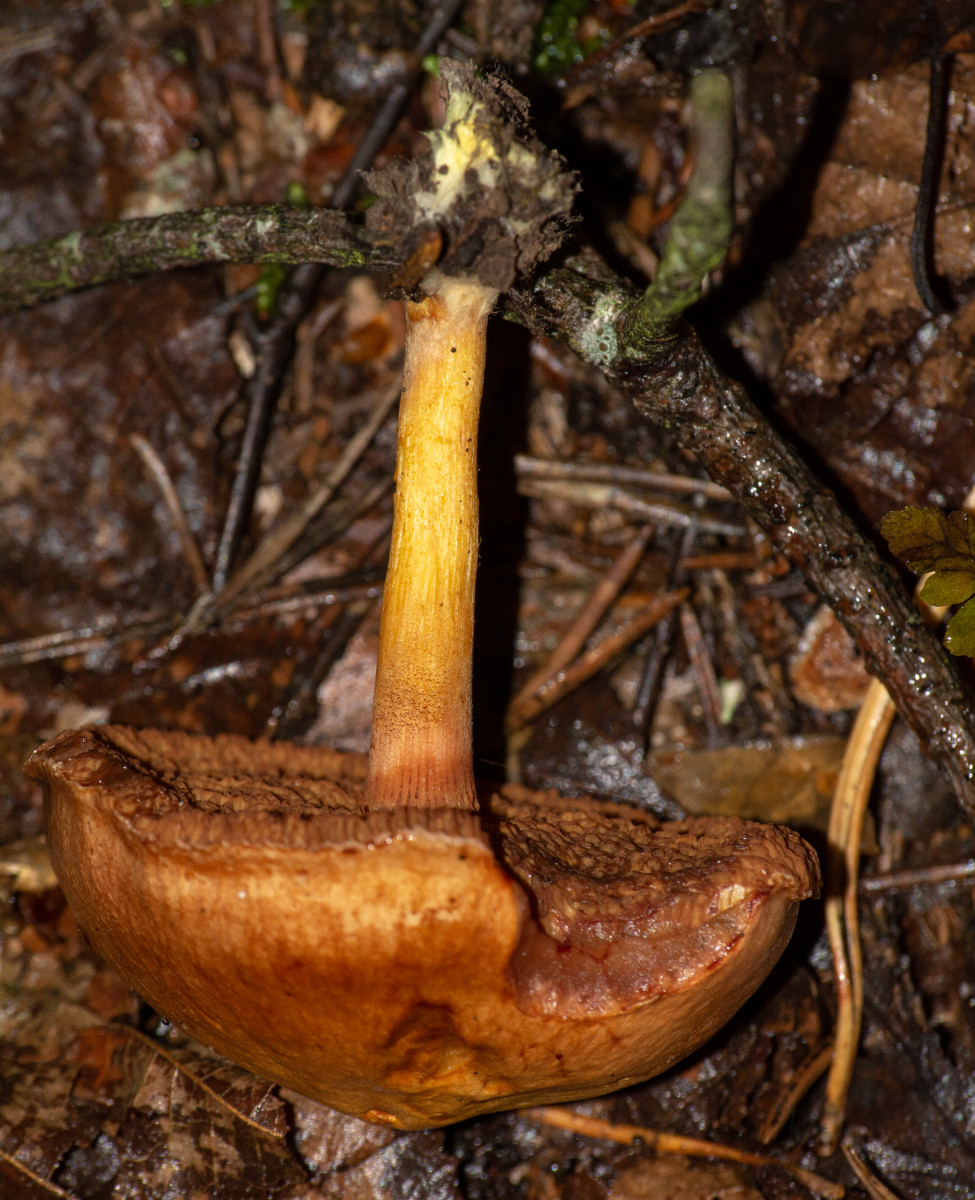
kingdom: Fungi
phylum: Basidiomycota
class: Agaricomycetes
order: Boletales
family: Boletaceae
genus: Chalciporus
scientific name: Chalciporus piperatus
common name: peberrørhat
